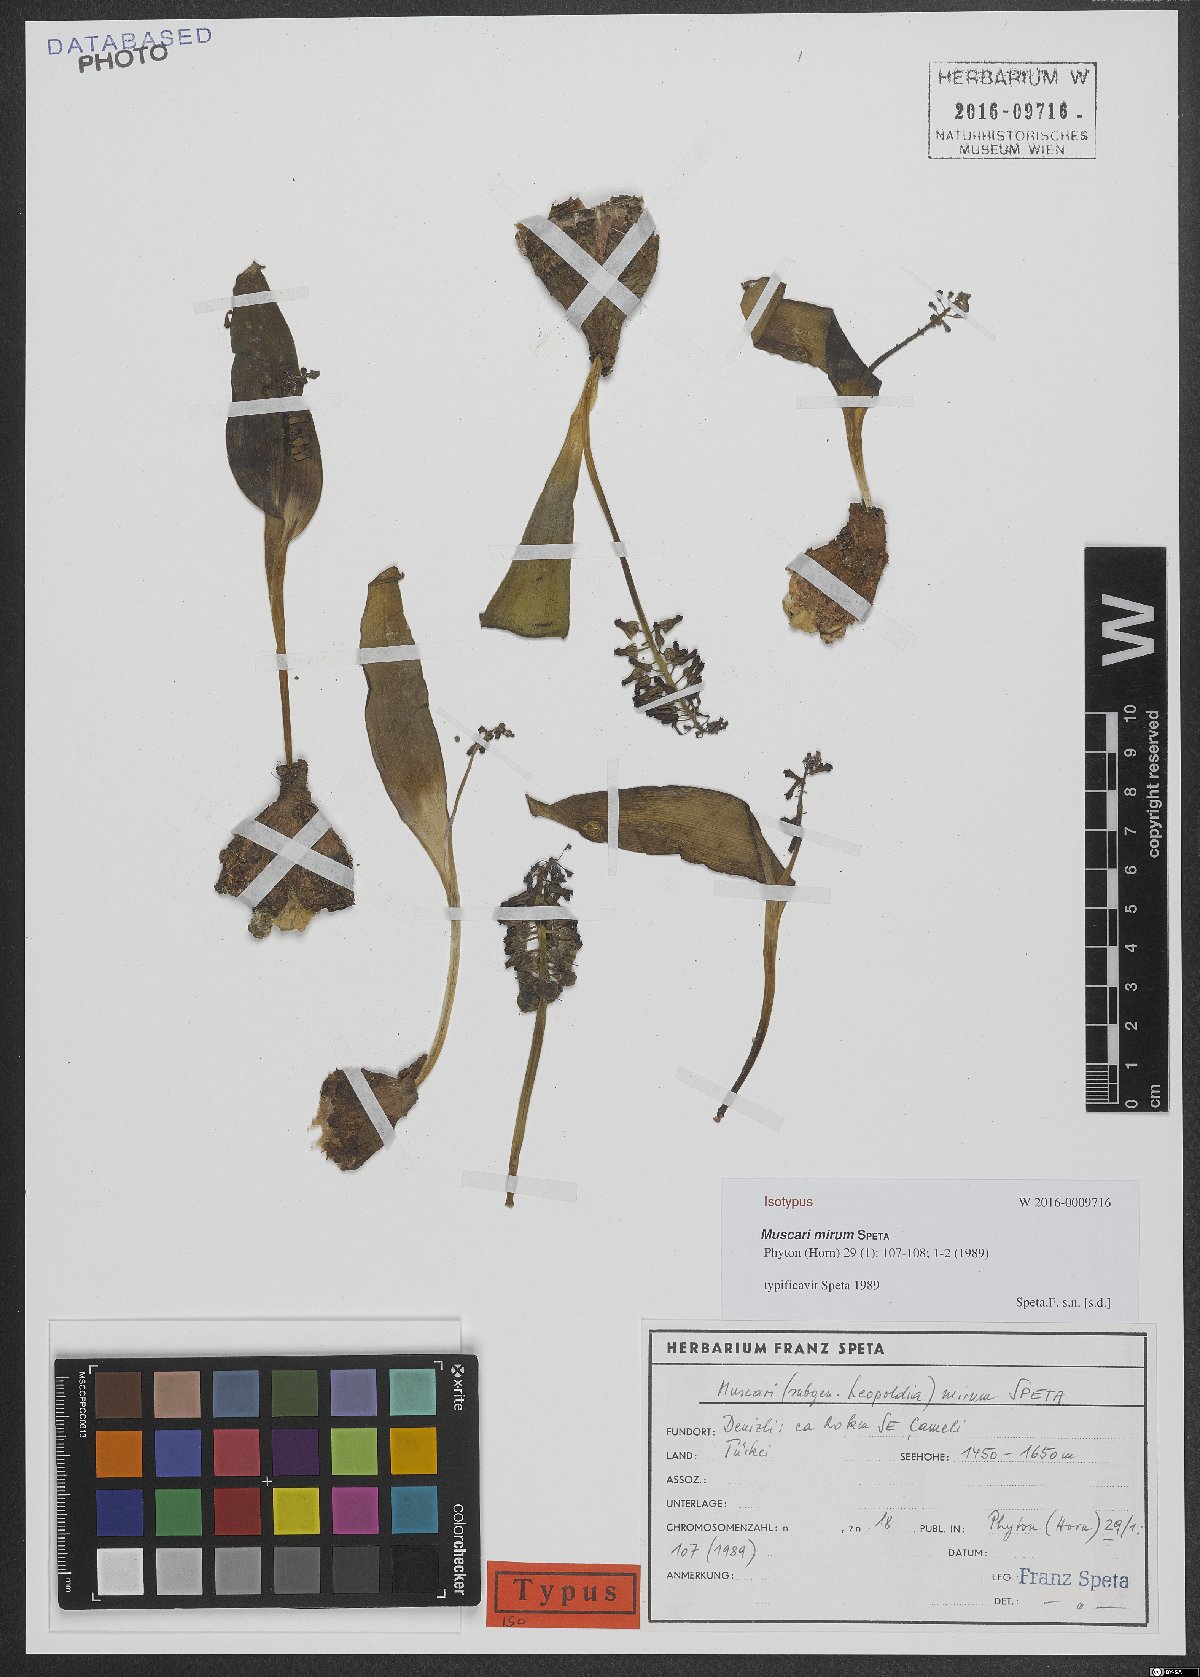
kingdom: Plantae
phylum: Tracheophyta
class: Liliopsida
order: Asparagales
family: Asparagaceae
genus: Muscari
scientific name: Muscari mirum
